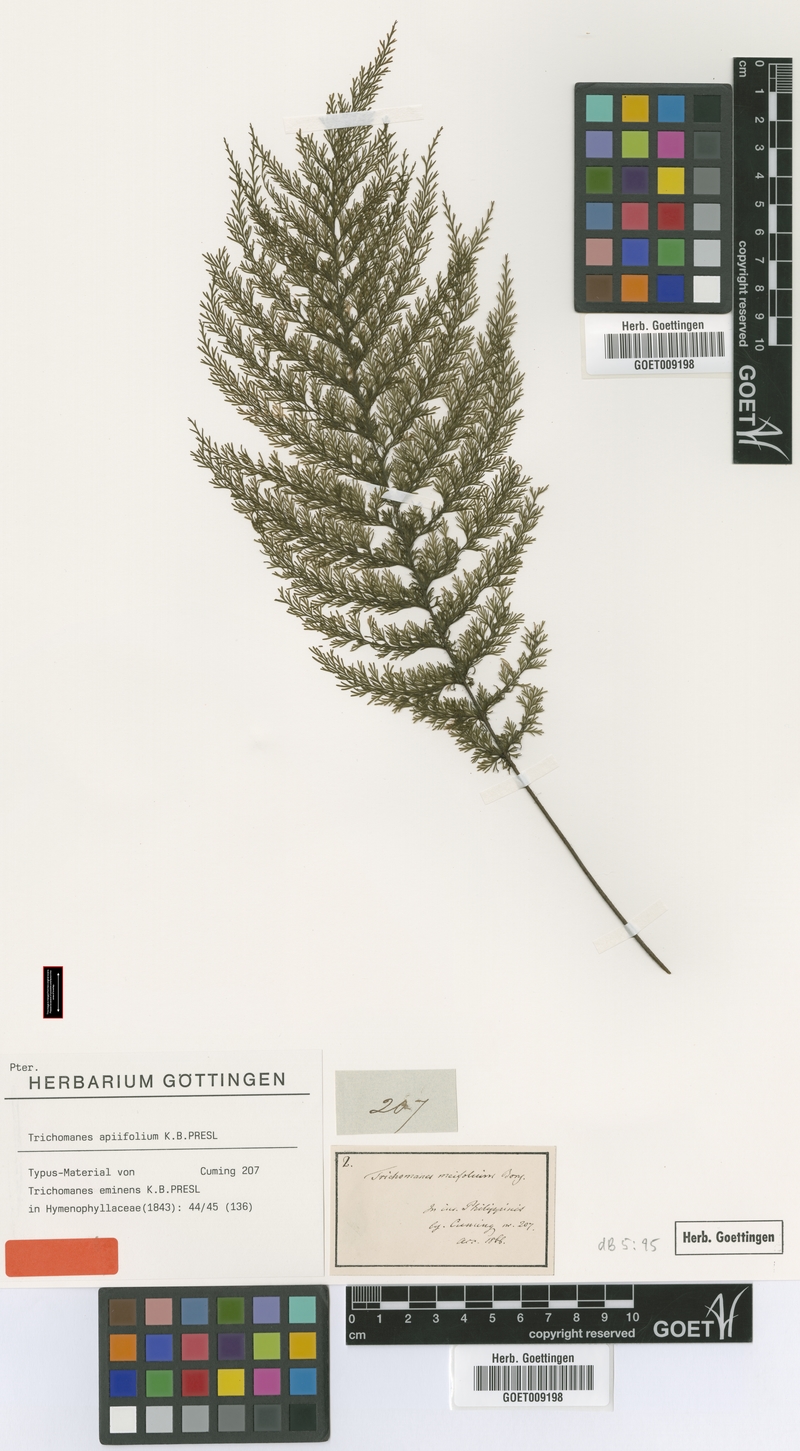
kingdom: Plantae
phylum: Tracheophyta
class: Polypodiopsida
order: Hymenophyllales
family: Hymenophyllaceae
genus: Callistopteris
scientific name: Callistopteris apiifolia
